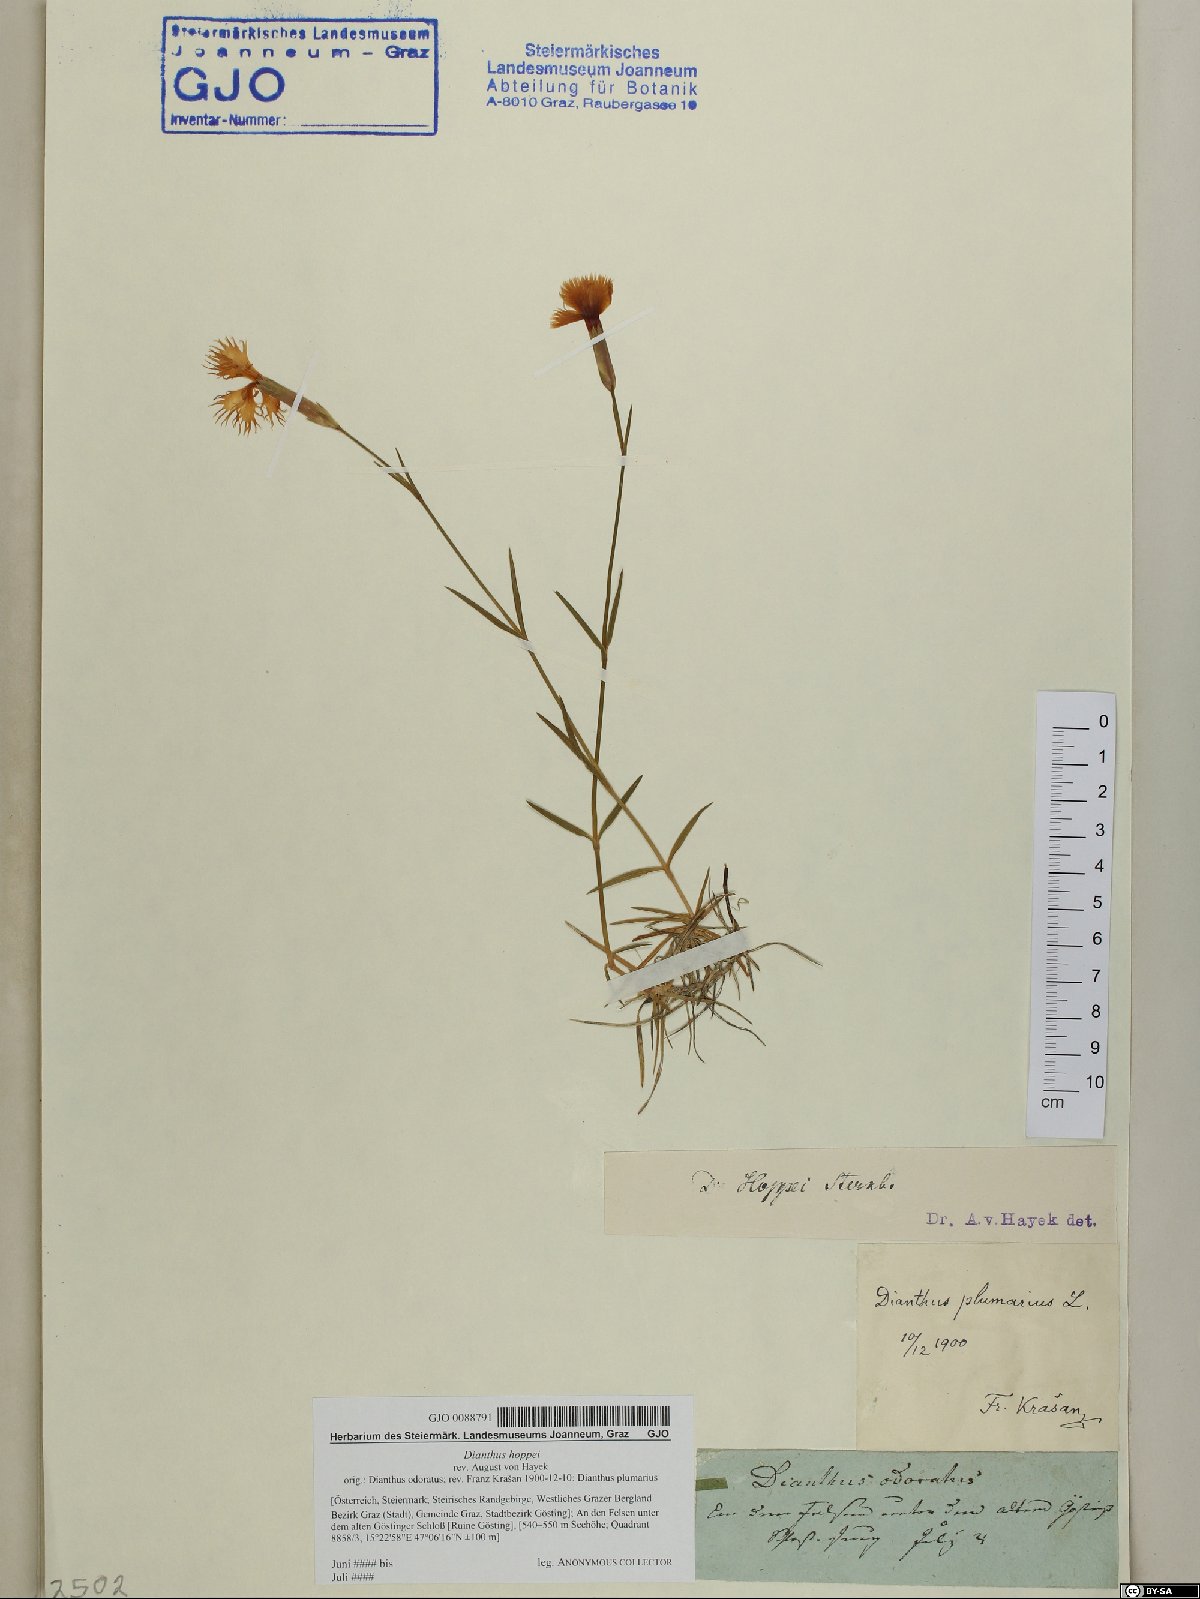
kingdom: Plantae
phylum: Tracheophyta
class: Magnoliopsida
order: Caryophyllales
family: Caryophyllaceae
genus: Dianthus
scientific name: Dianthus plumarius
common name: Pink
